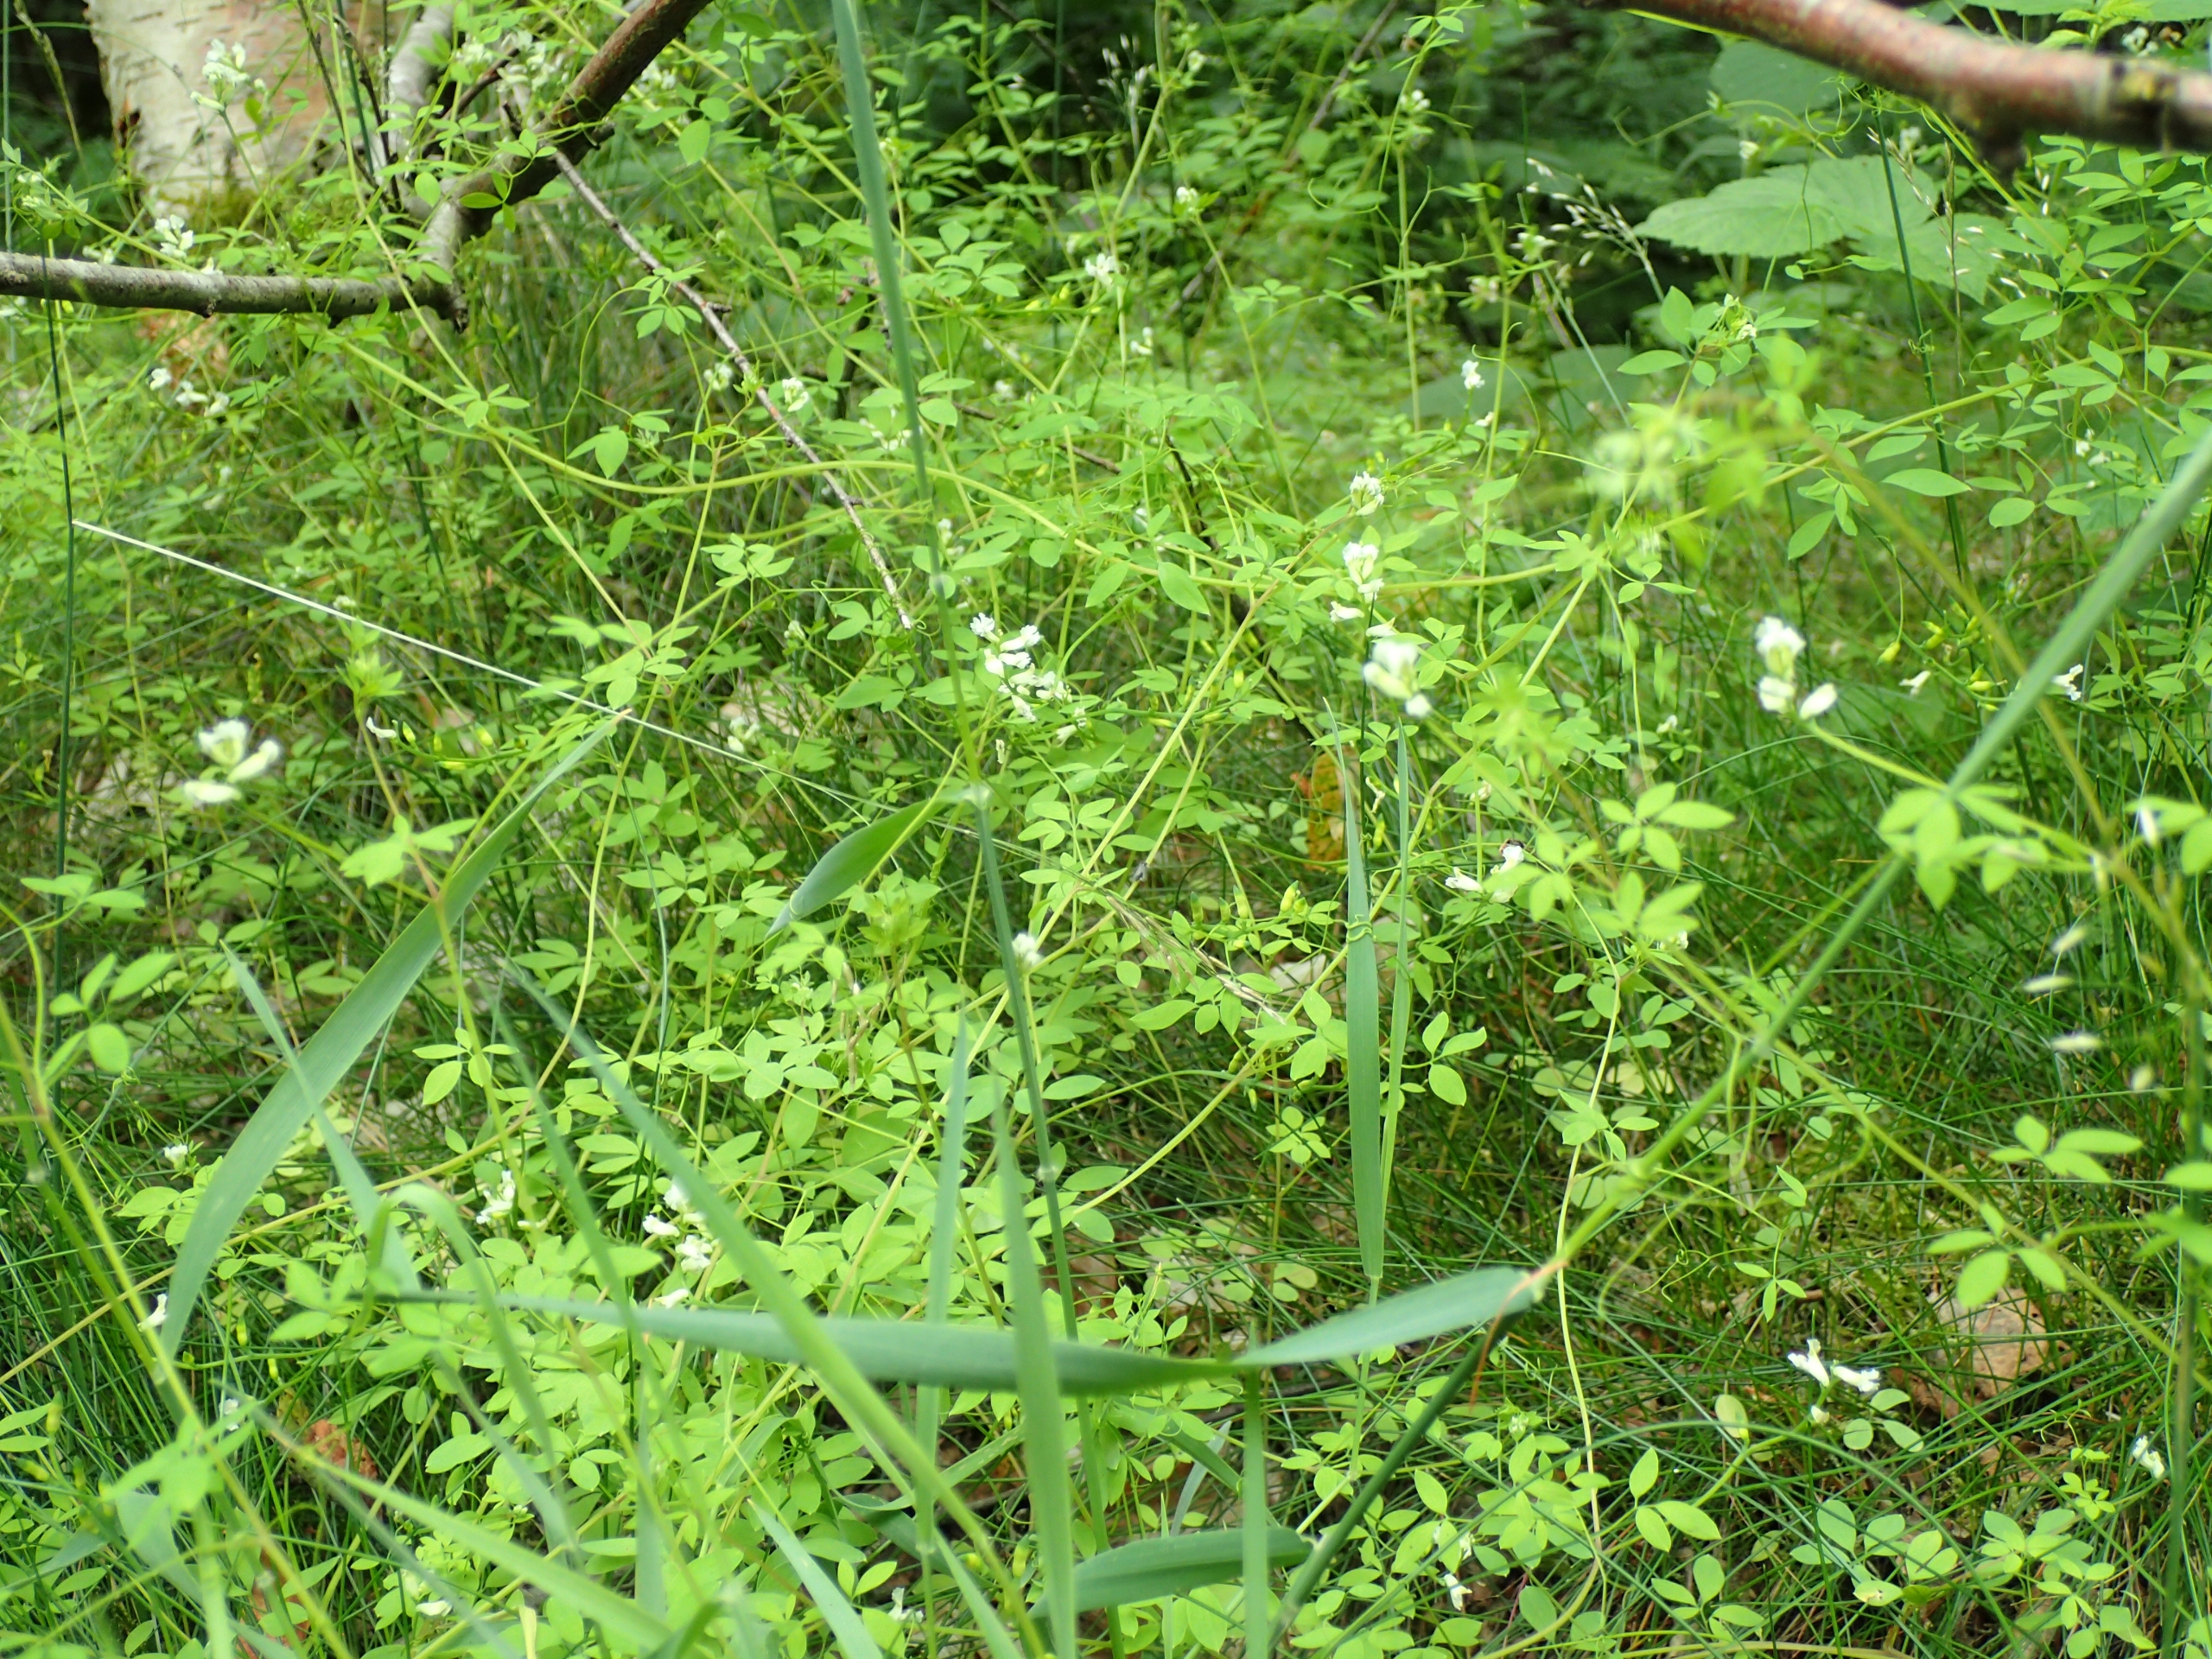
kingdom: Plantae
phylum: Tracheophyta
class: Magnoliopsida
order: Ranunculales
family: Papaveraceae
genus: Ceratocapnos
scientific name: Ceratocapnos claviculata
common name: Klatrende lærkespore
